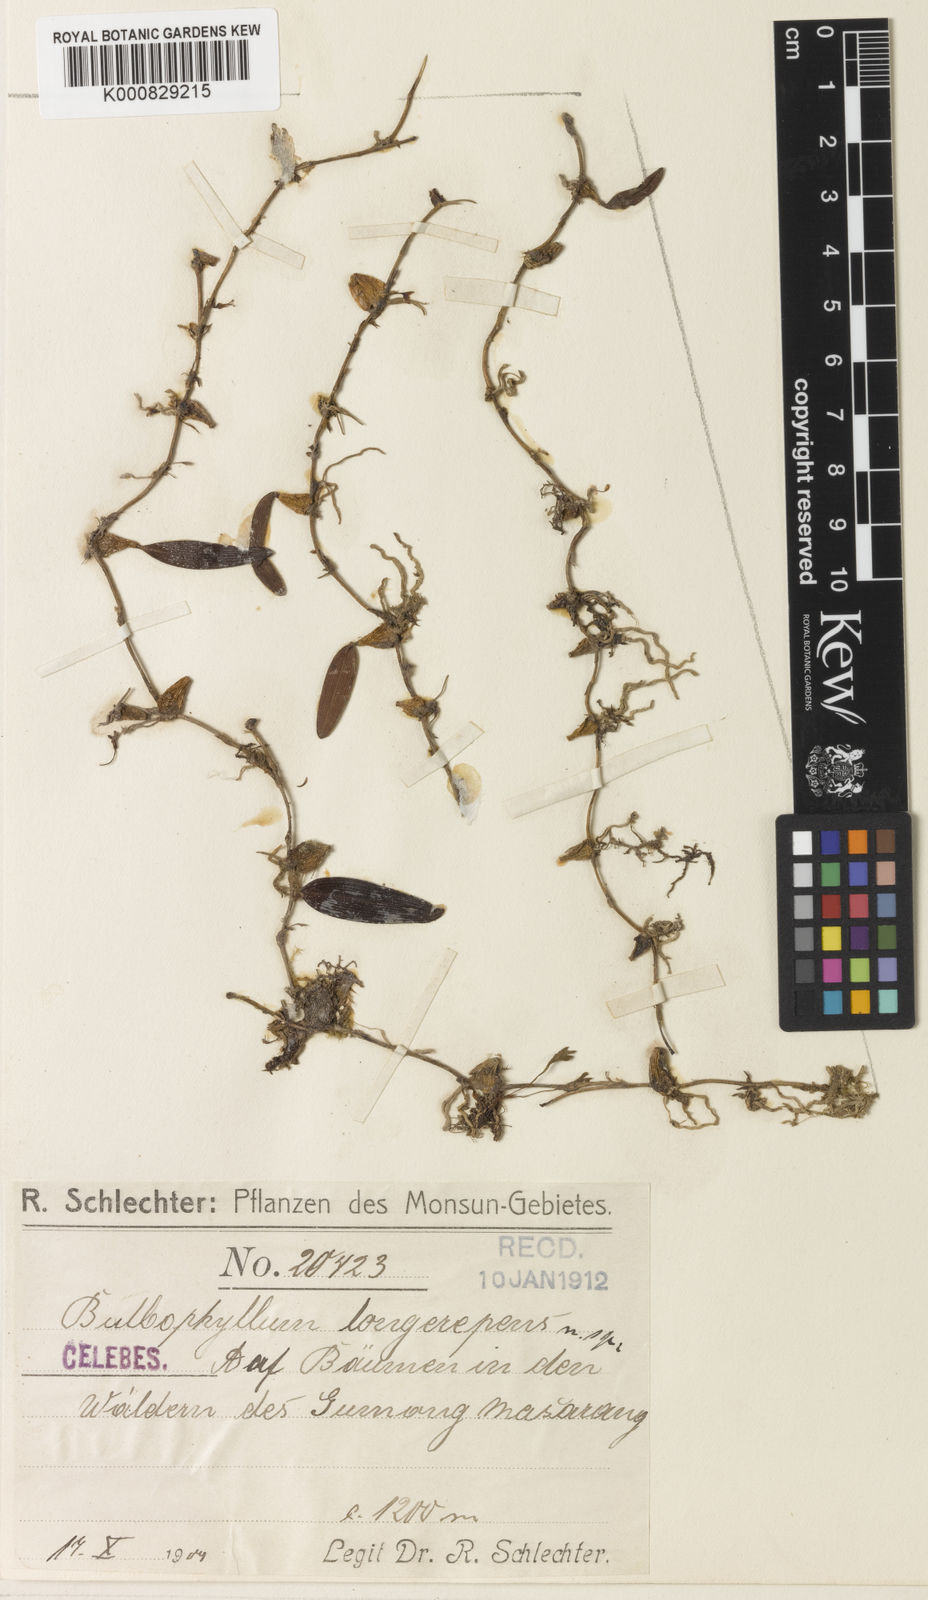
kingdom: Plantae
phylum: Tracheophyta
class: Liliopsida
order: Asparagales
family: Orchidaceae
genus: Bulbophyllum
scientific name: Bulbophyllum mucronatum
